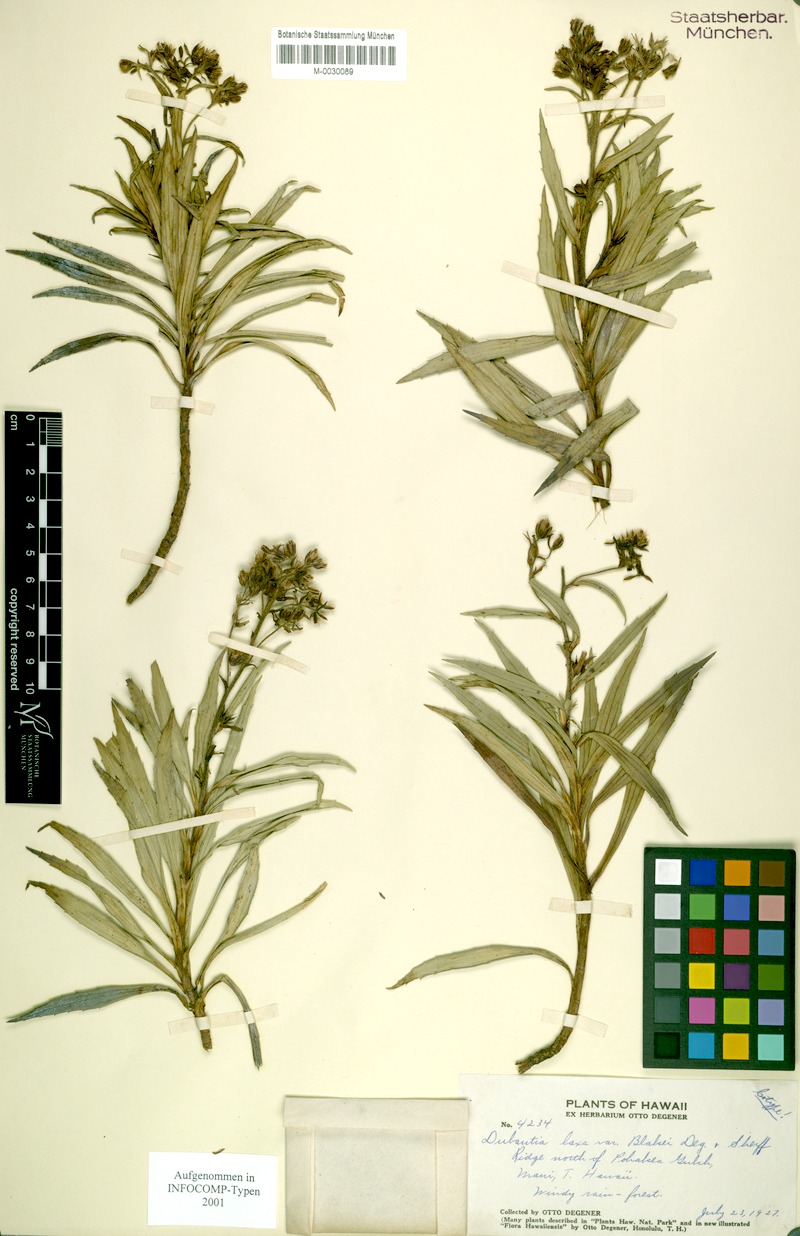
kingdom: Plantae
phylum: Tracheophyta
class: Magnoliopsida
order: Asterales
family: Asteraceae
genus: Dubautia
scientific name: Dubautia laxa
